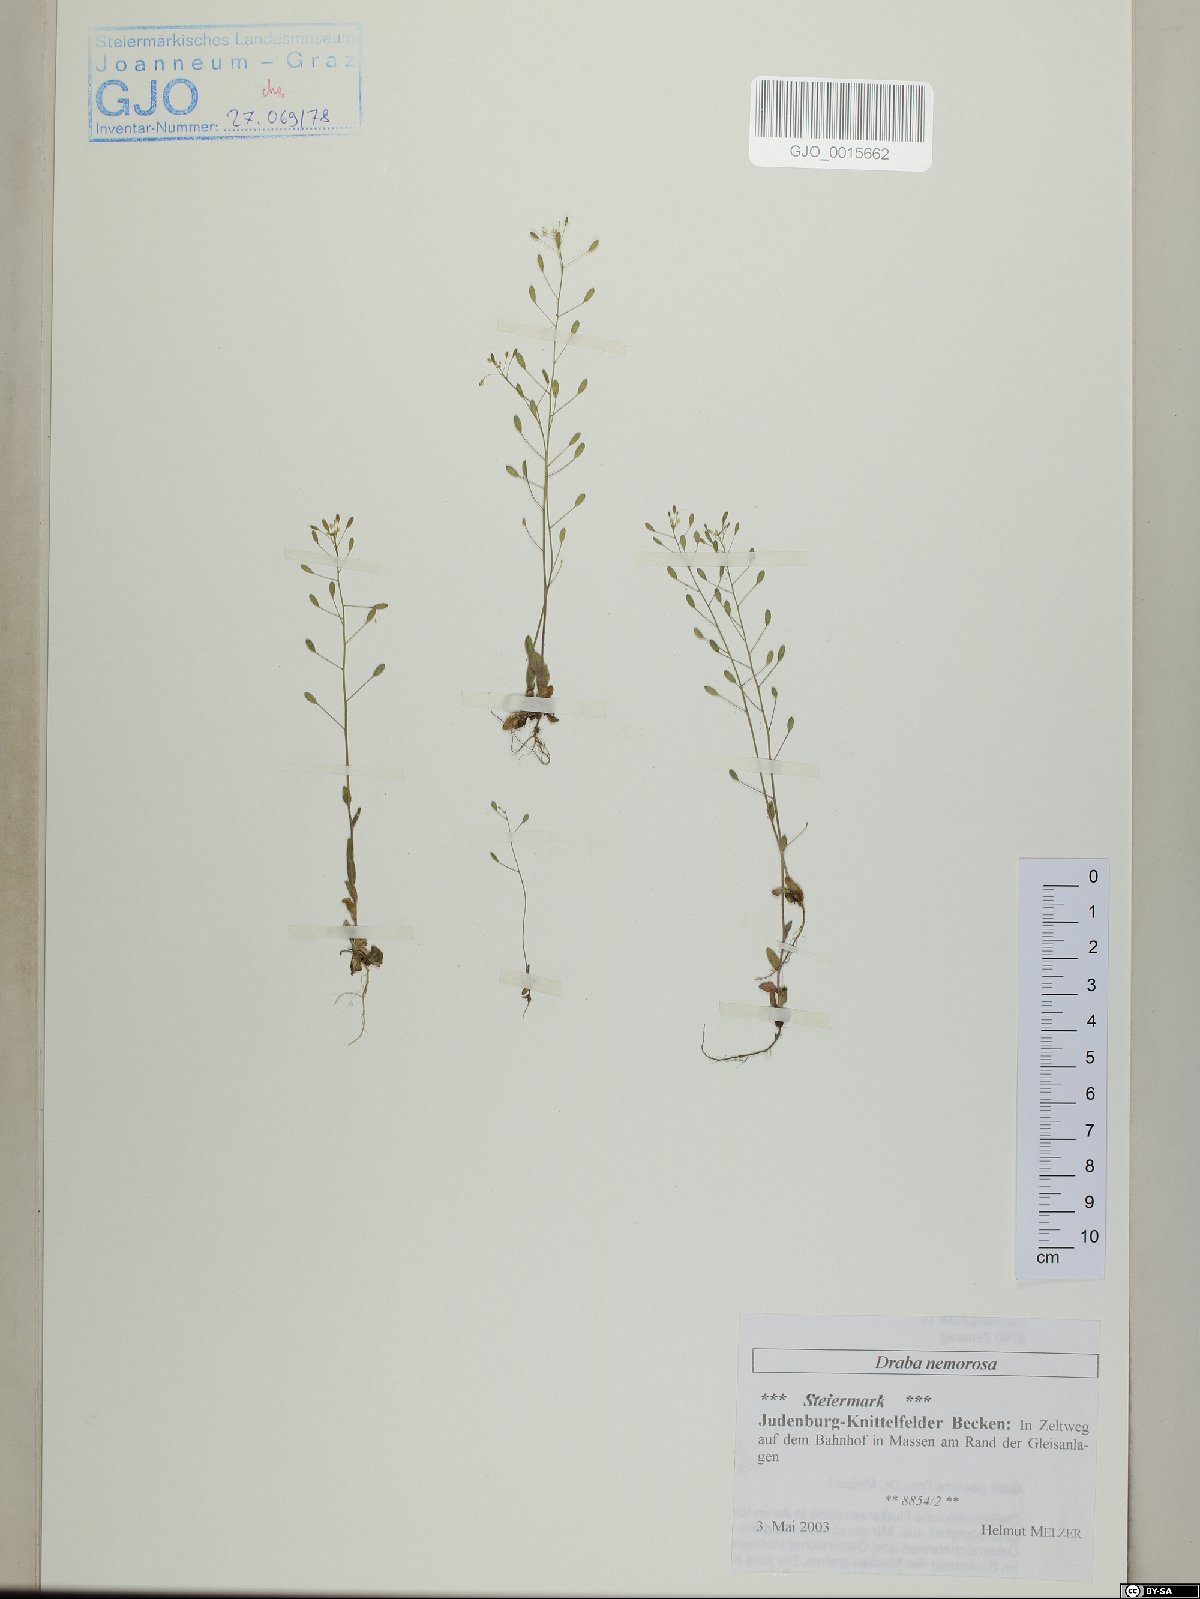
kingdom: Plantae
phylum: Tracheophyta
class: Magnoliopsida
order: Brassicales
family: Brassicaceae
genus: Draba
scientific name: Draba nemorosa
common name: Wood whitlow-grass
